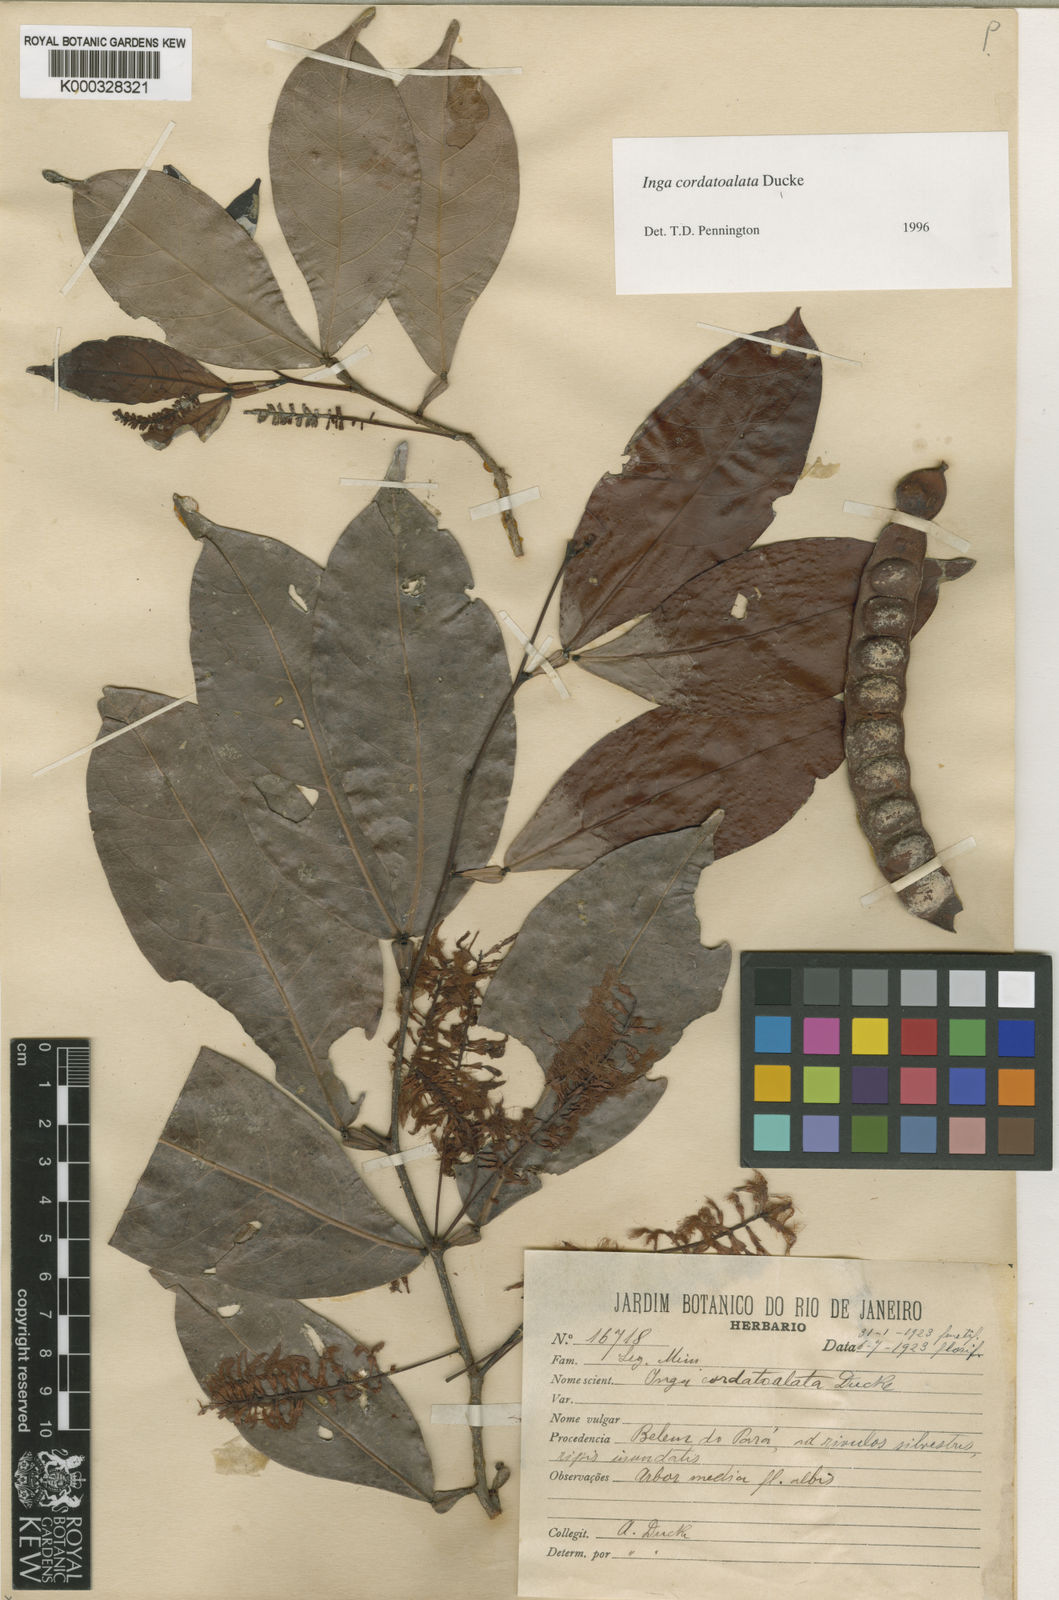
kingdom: Plantae
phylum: Tracheophyta
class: Magnoliopsida
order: Fabales
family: Fabaceae
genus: Inga
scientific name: Inga cordatoalata
